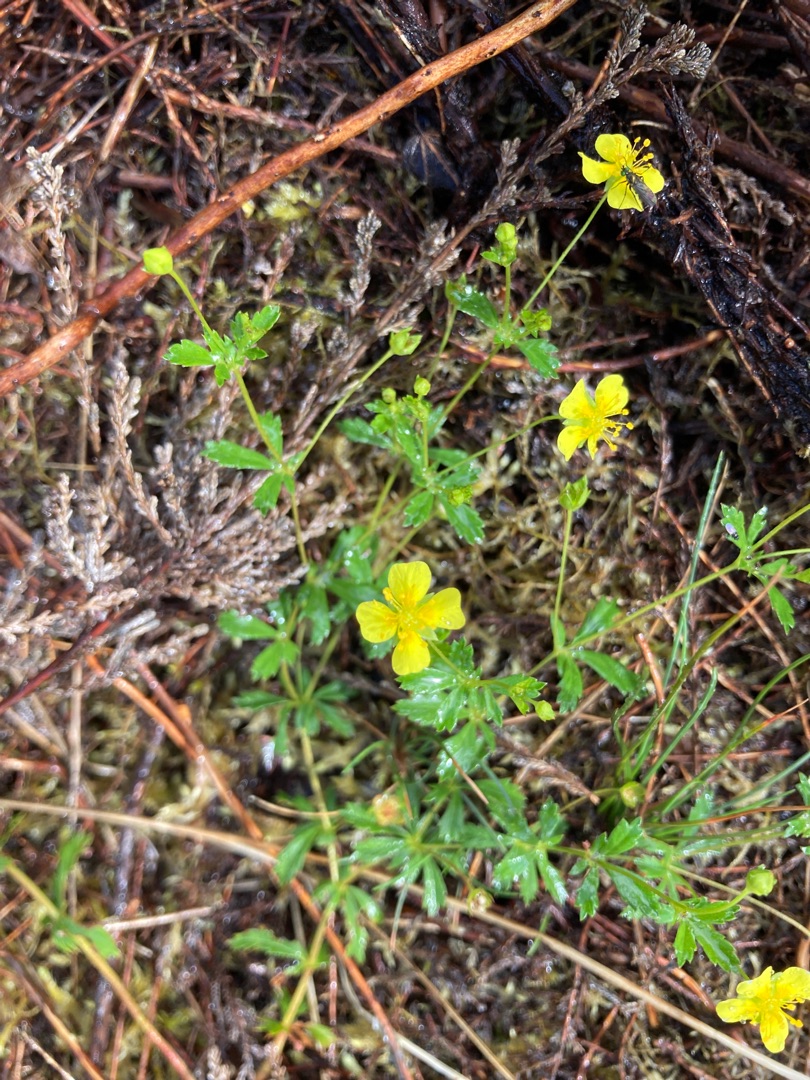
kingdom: Plantae
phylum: Tracheophyta
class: Magnoliopsida
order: Rosales
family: Rosaceae
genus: Potentilla
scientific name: Potentilla erecta
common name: Tormentil
